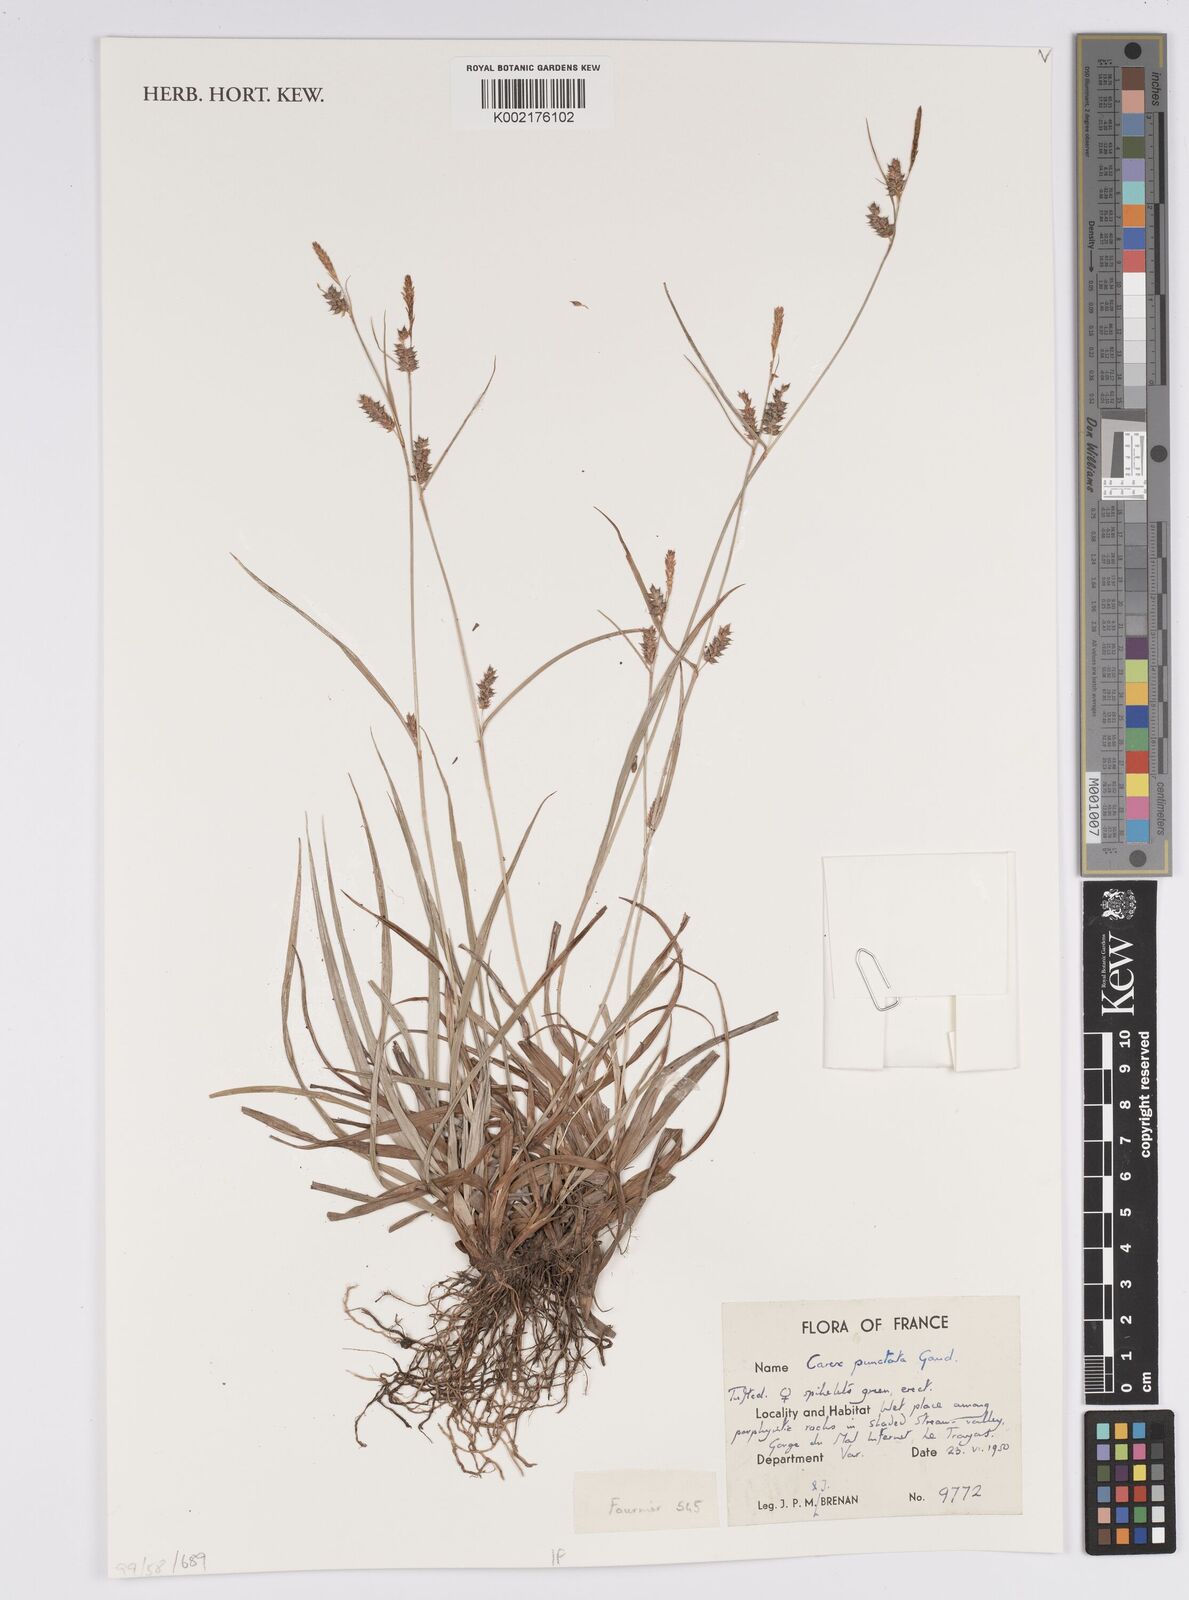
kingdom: Plantae
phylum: Tracheophyta
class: Liliopsida
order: Poales
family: Cyperaceae
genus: Carex
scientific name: Carex punctata
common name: Dotted sedge
